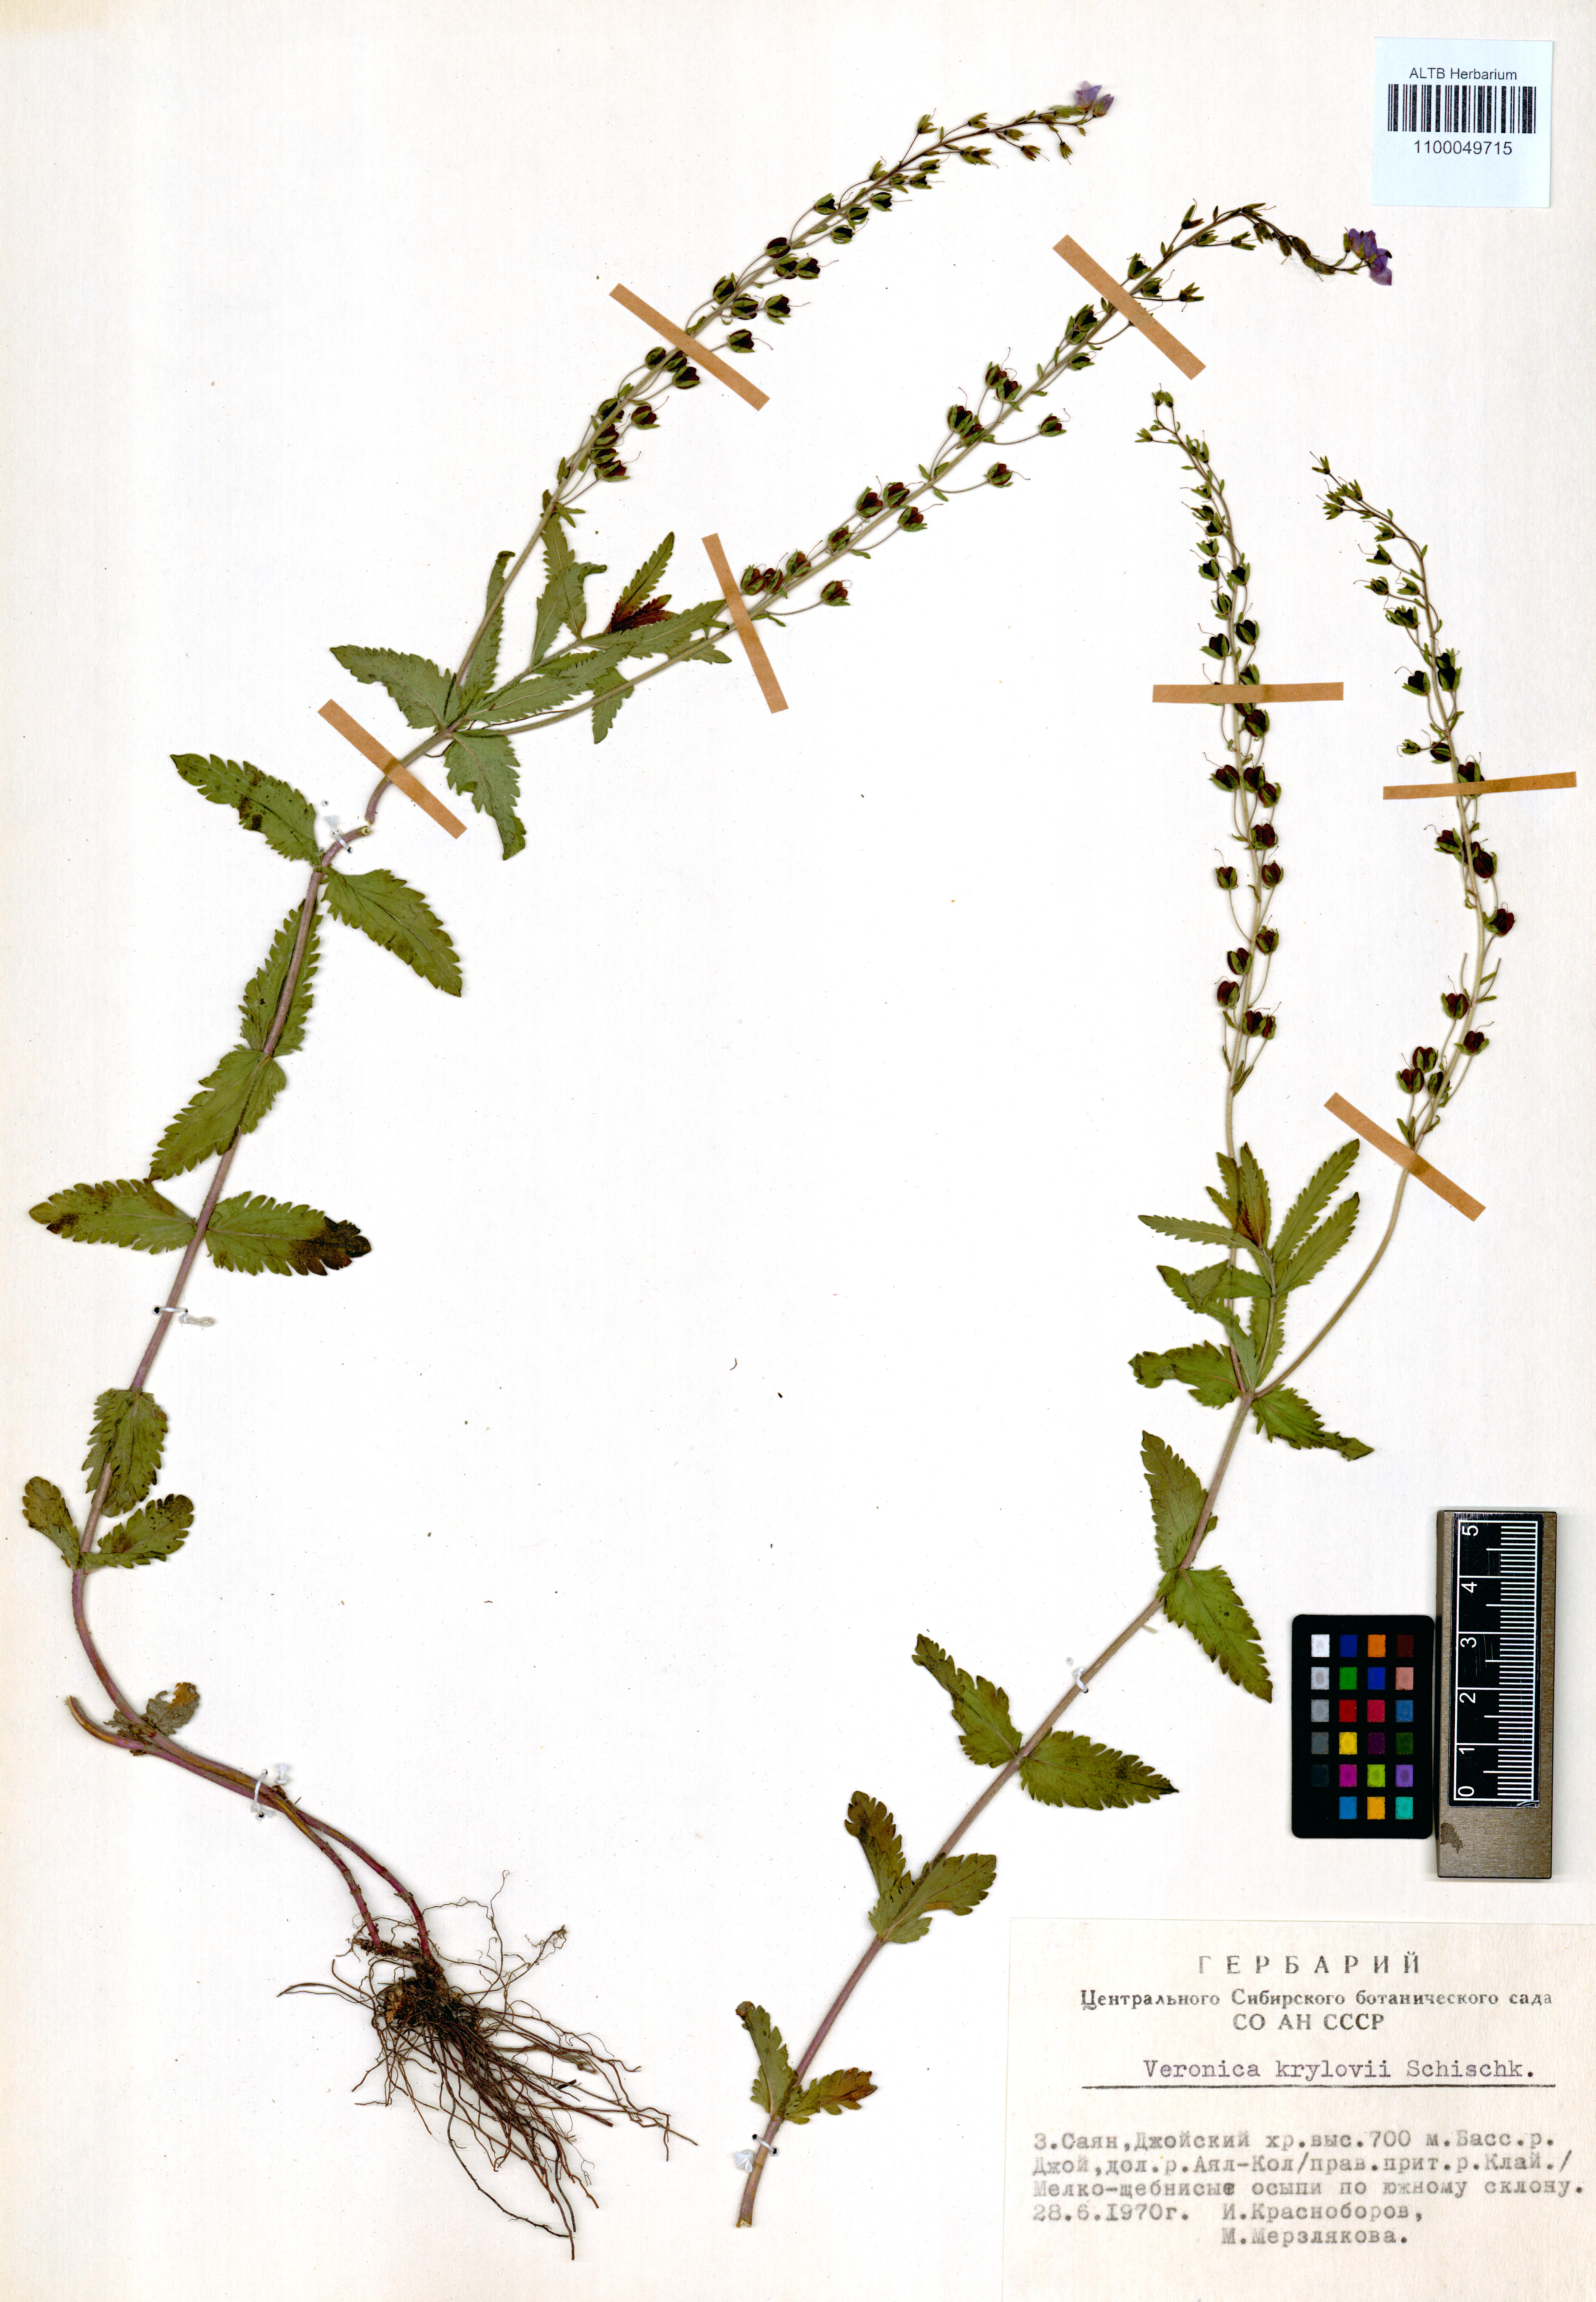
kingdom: Plantae
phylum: Tracheophyta
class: Magnoliopsida
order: Lamiales
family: Plantaginaceae
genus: Veronica
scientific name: Veronica krylovii
